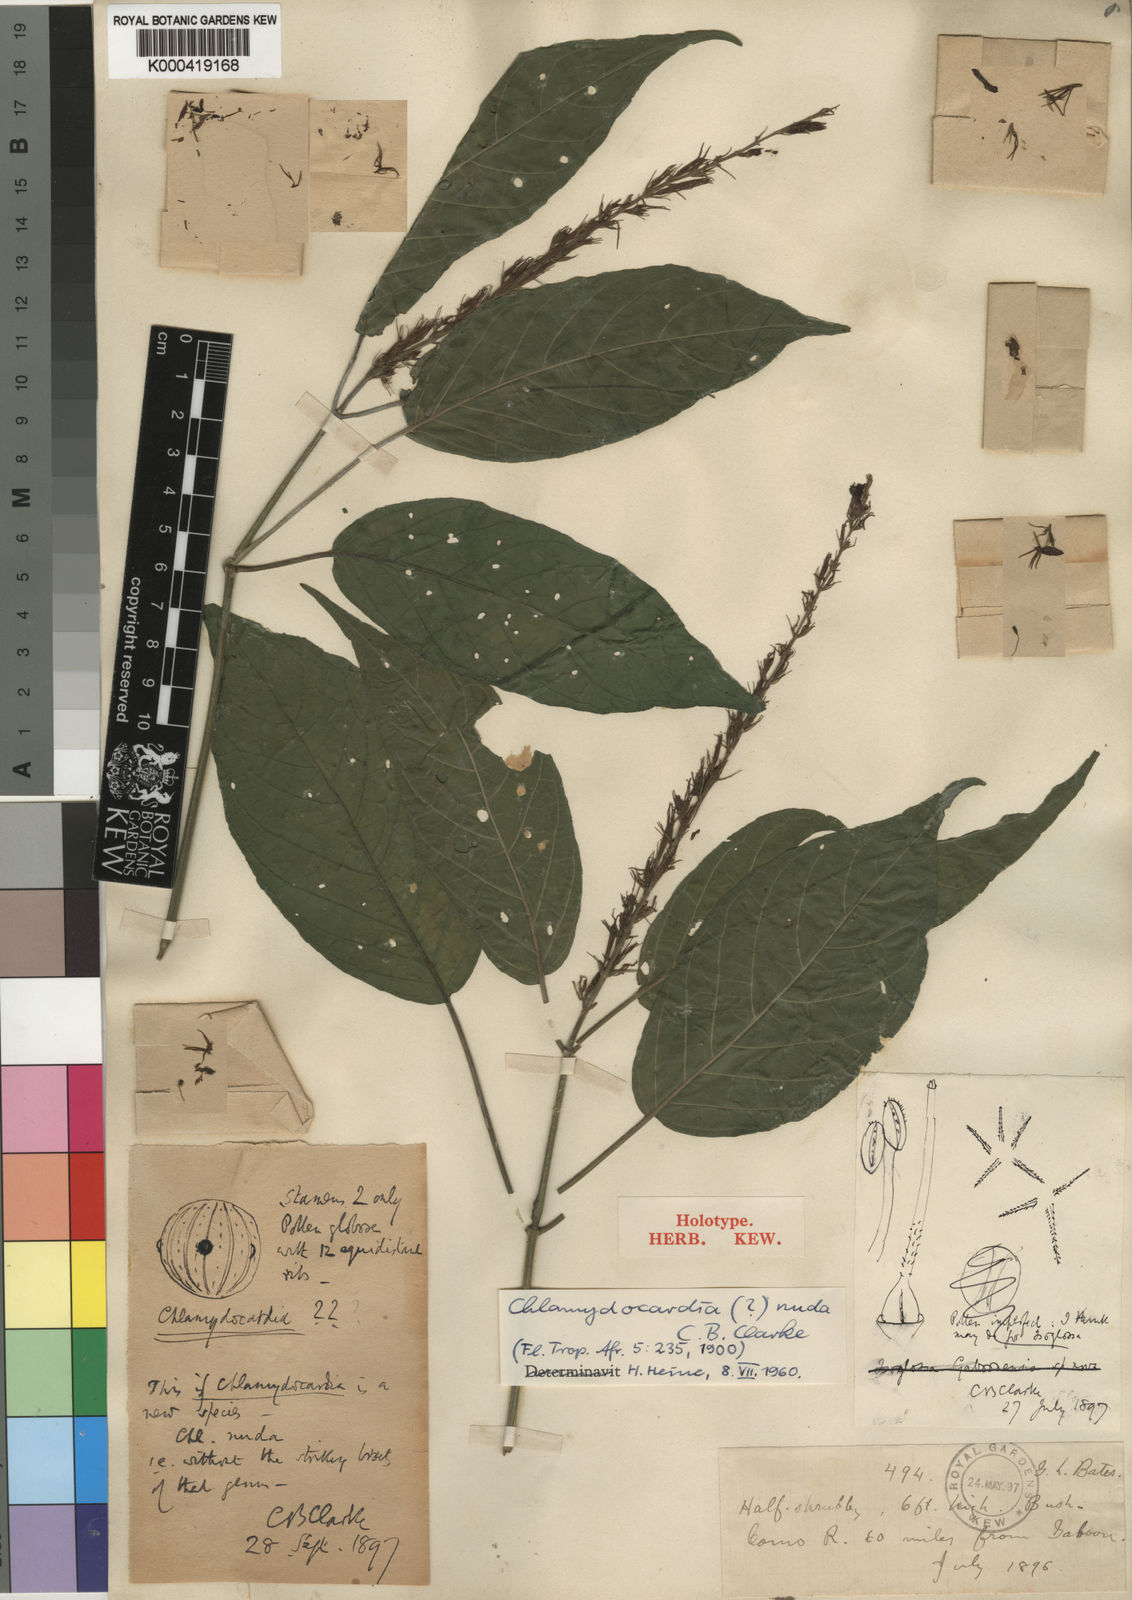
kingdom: Plantae
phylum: Tracheophyta
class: Magnoliopsida
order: Lamiales
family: Acanthaceae
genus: Champluviera
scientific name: Champluviera nuda
